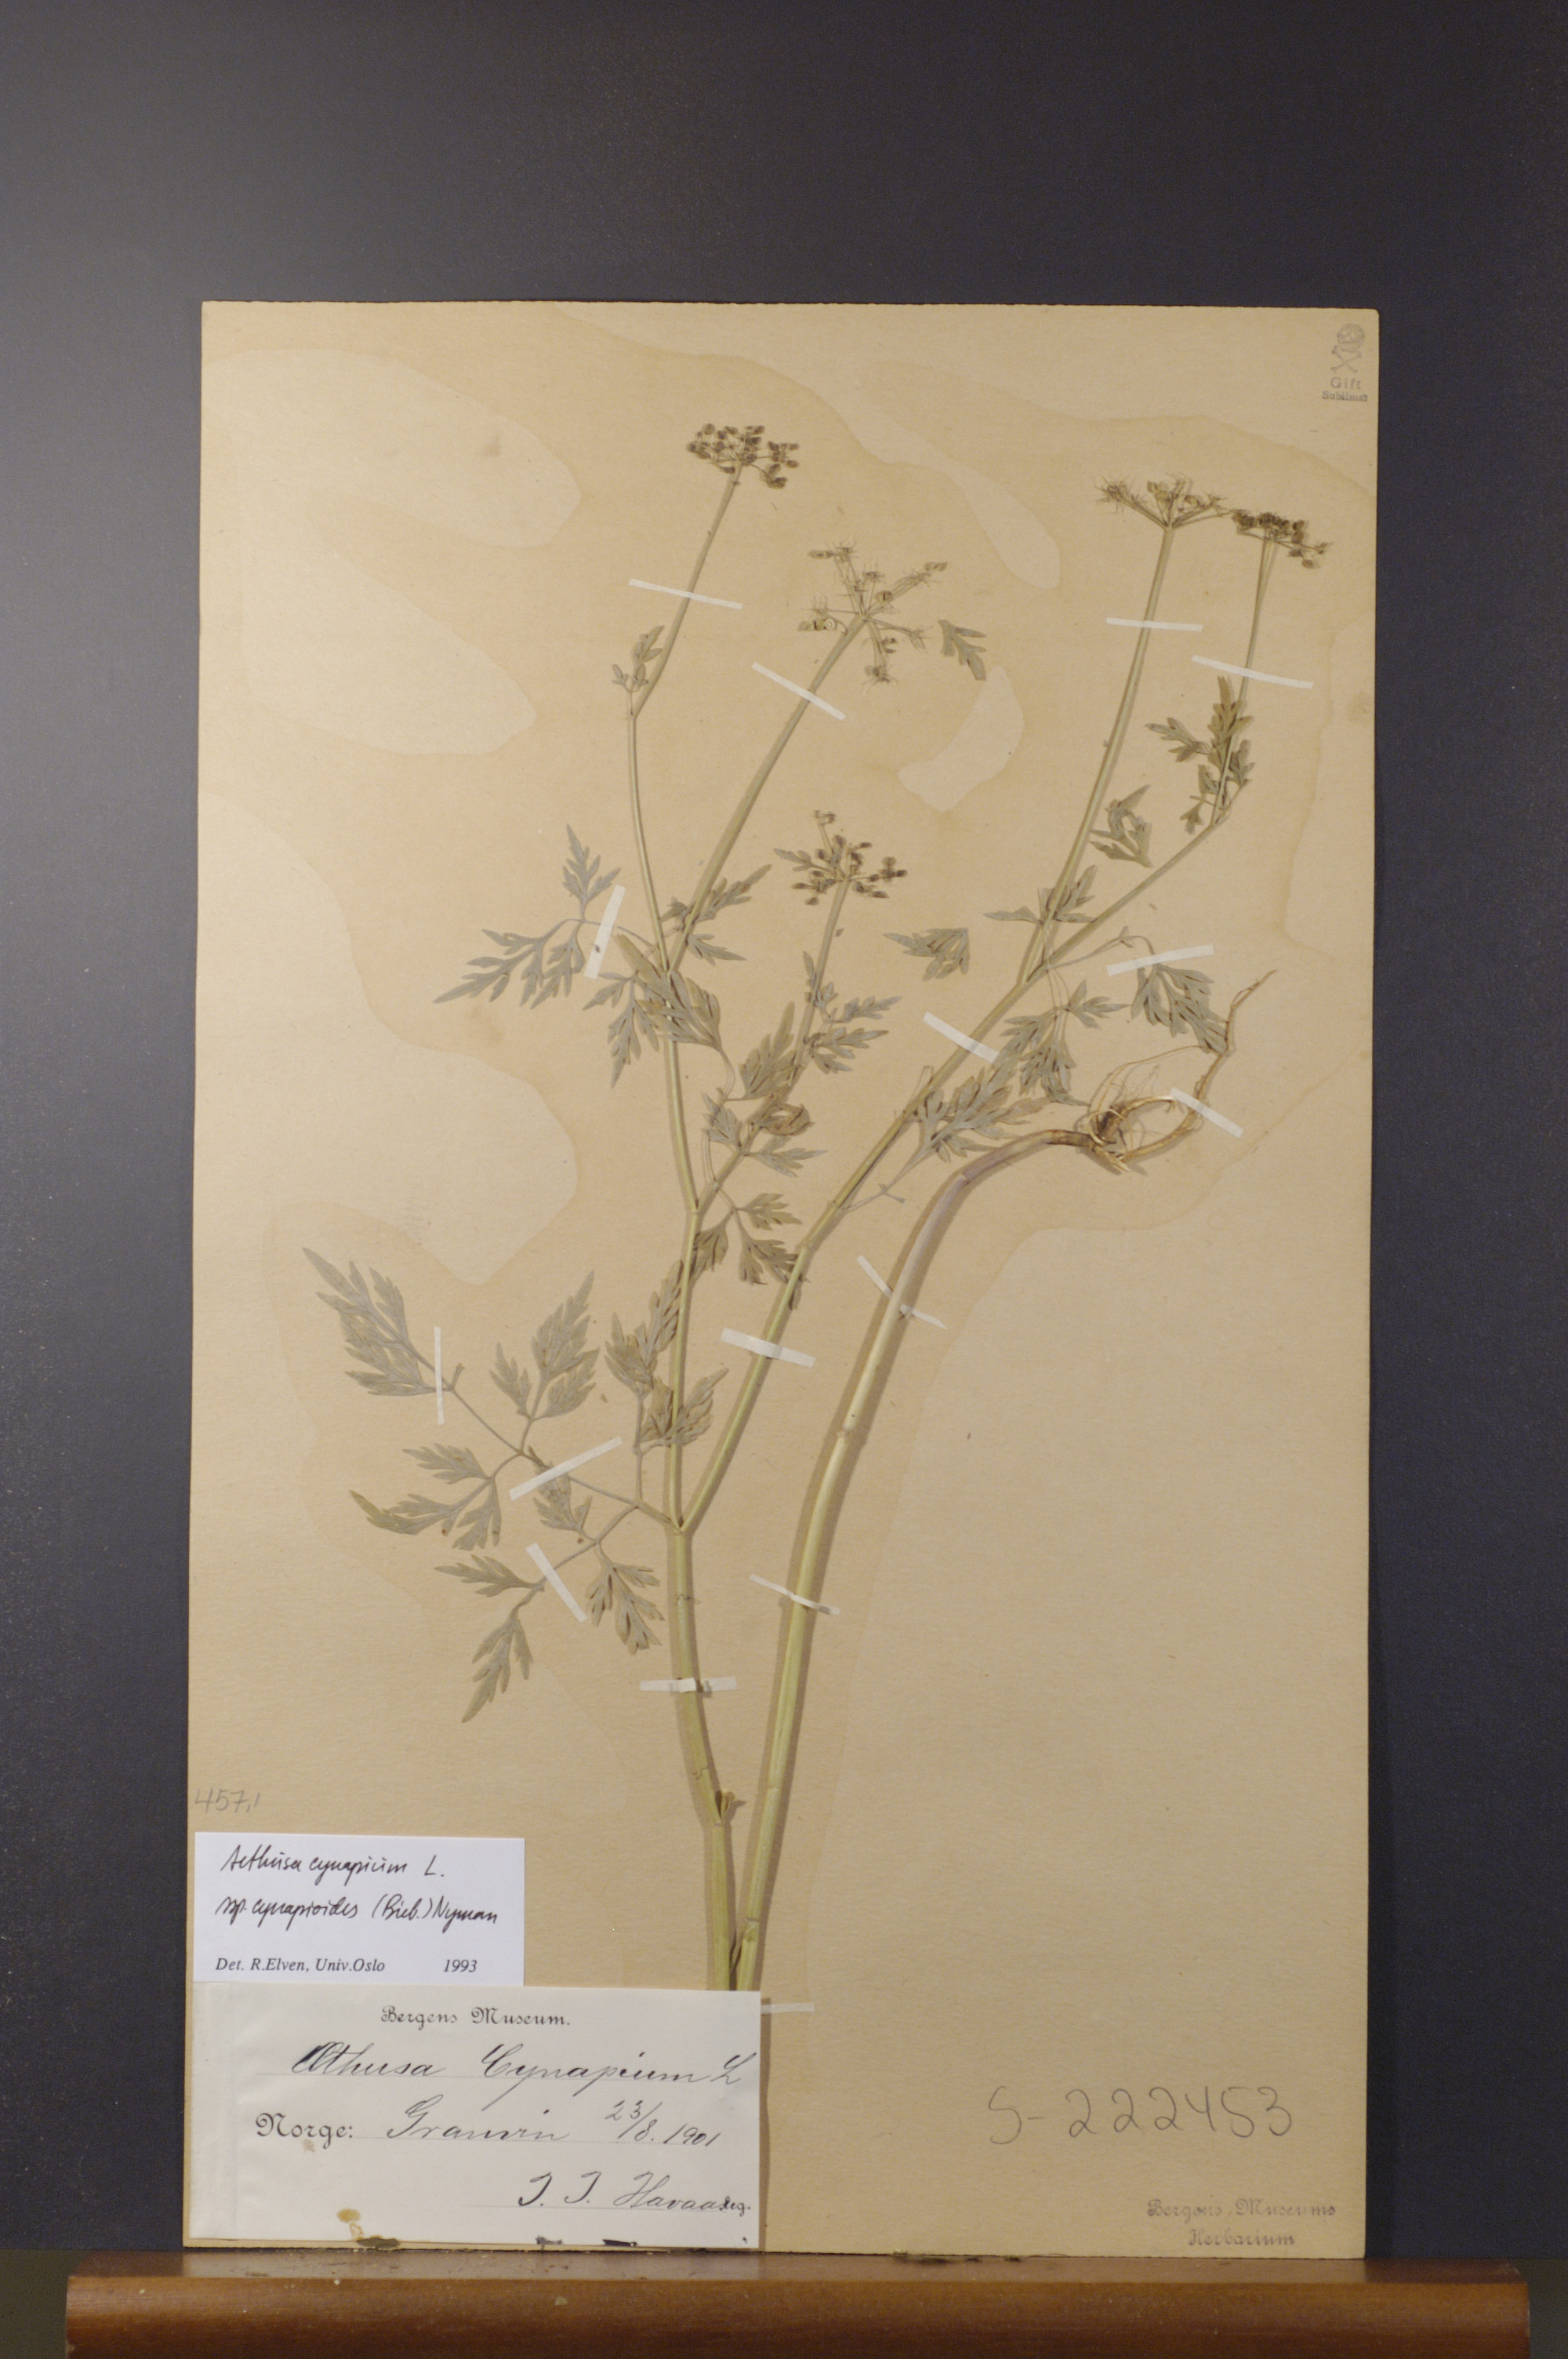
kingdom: Plantae
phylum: Tracheophyta
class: Magnoliopsida
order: Apiales
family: Apiaceae
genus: Aethusa
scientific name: Aethusa cynapium
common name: Fool's parsley
